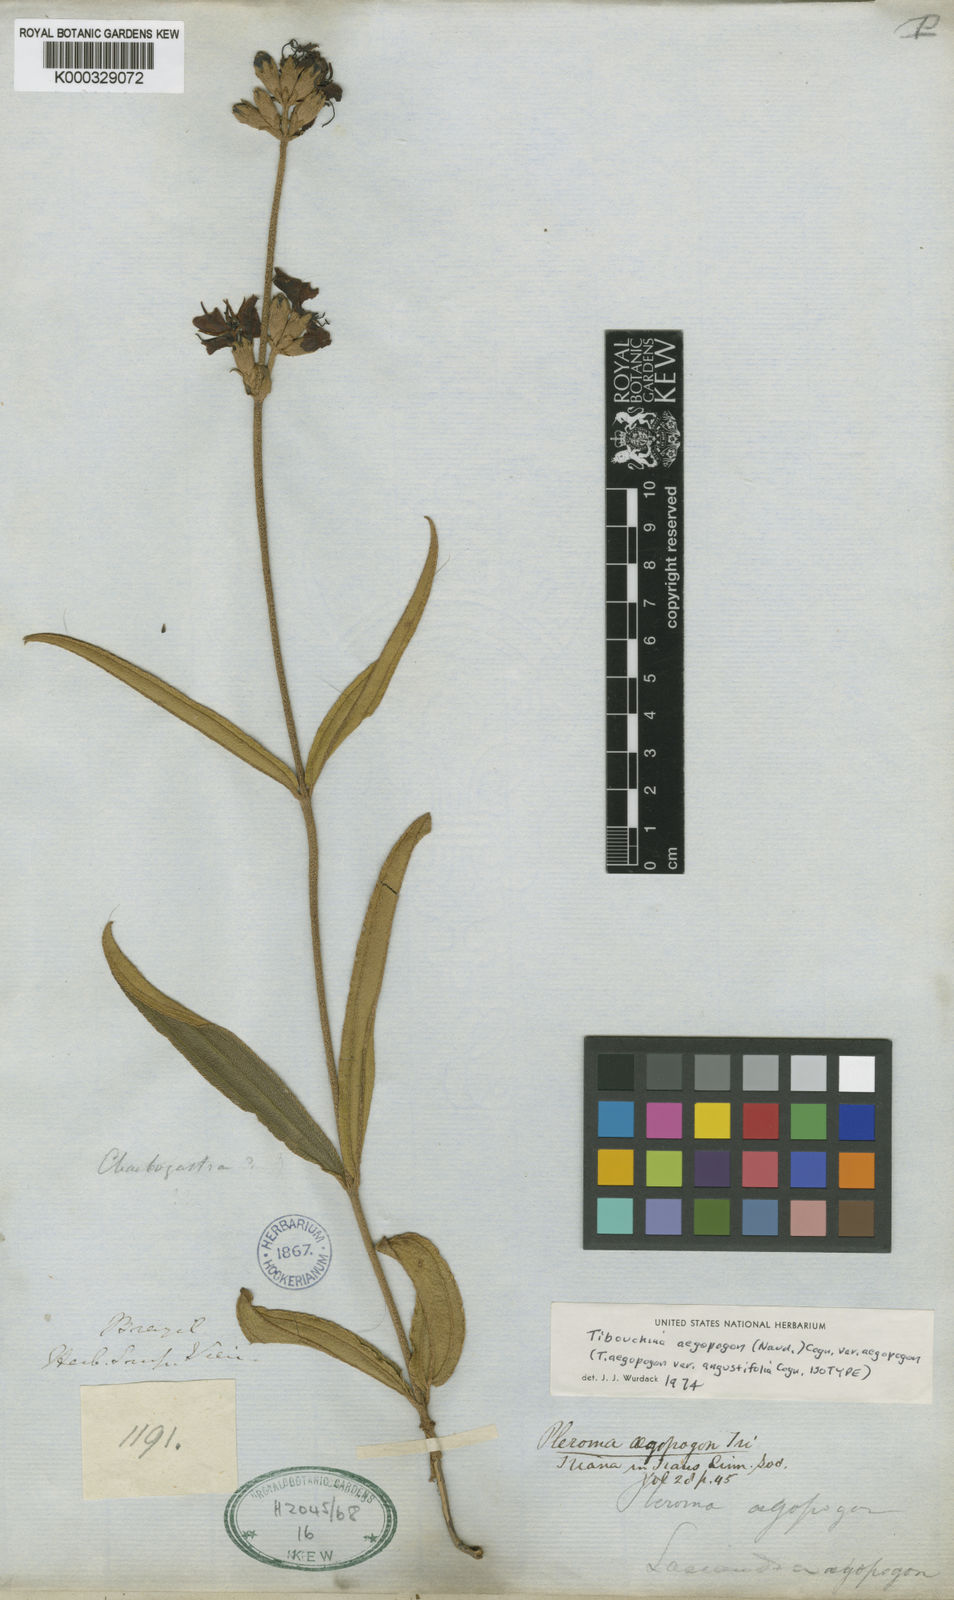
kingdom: Plantae
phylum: Tracheophyta
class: Magnoliopsida
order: Myrtales
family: Melastomataceae
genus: Pleroma
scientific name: Pleroma aegopogon
